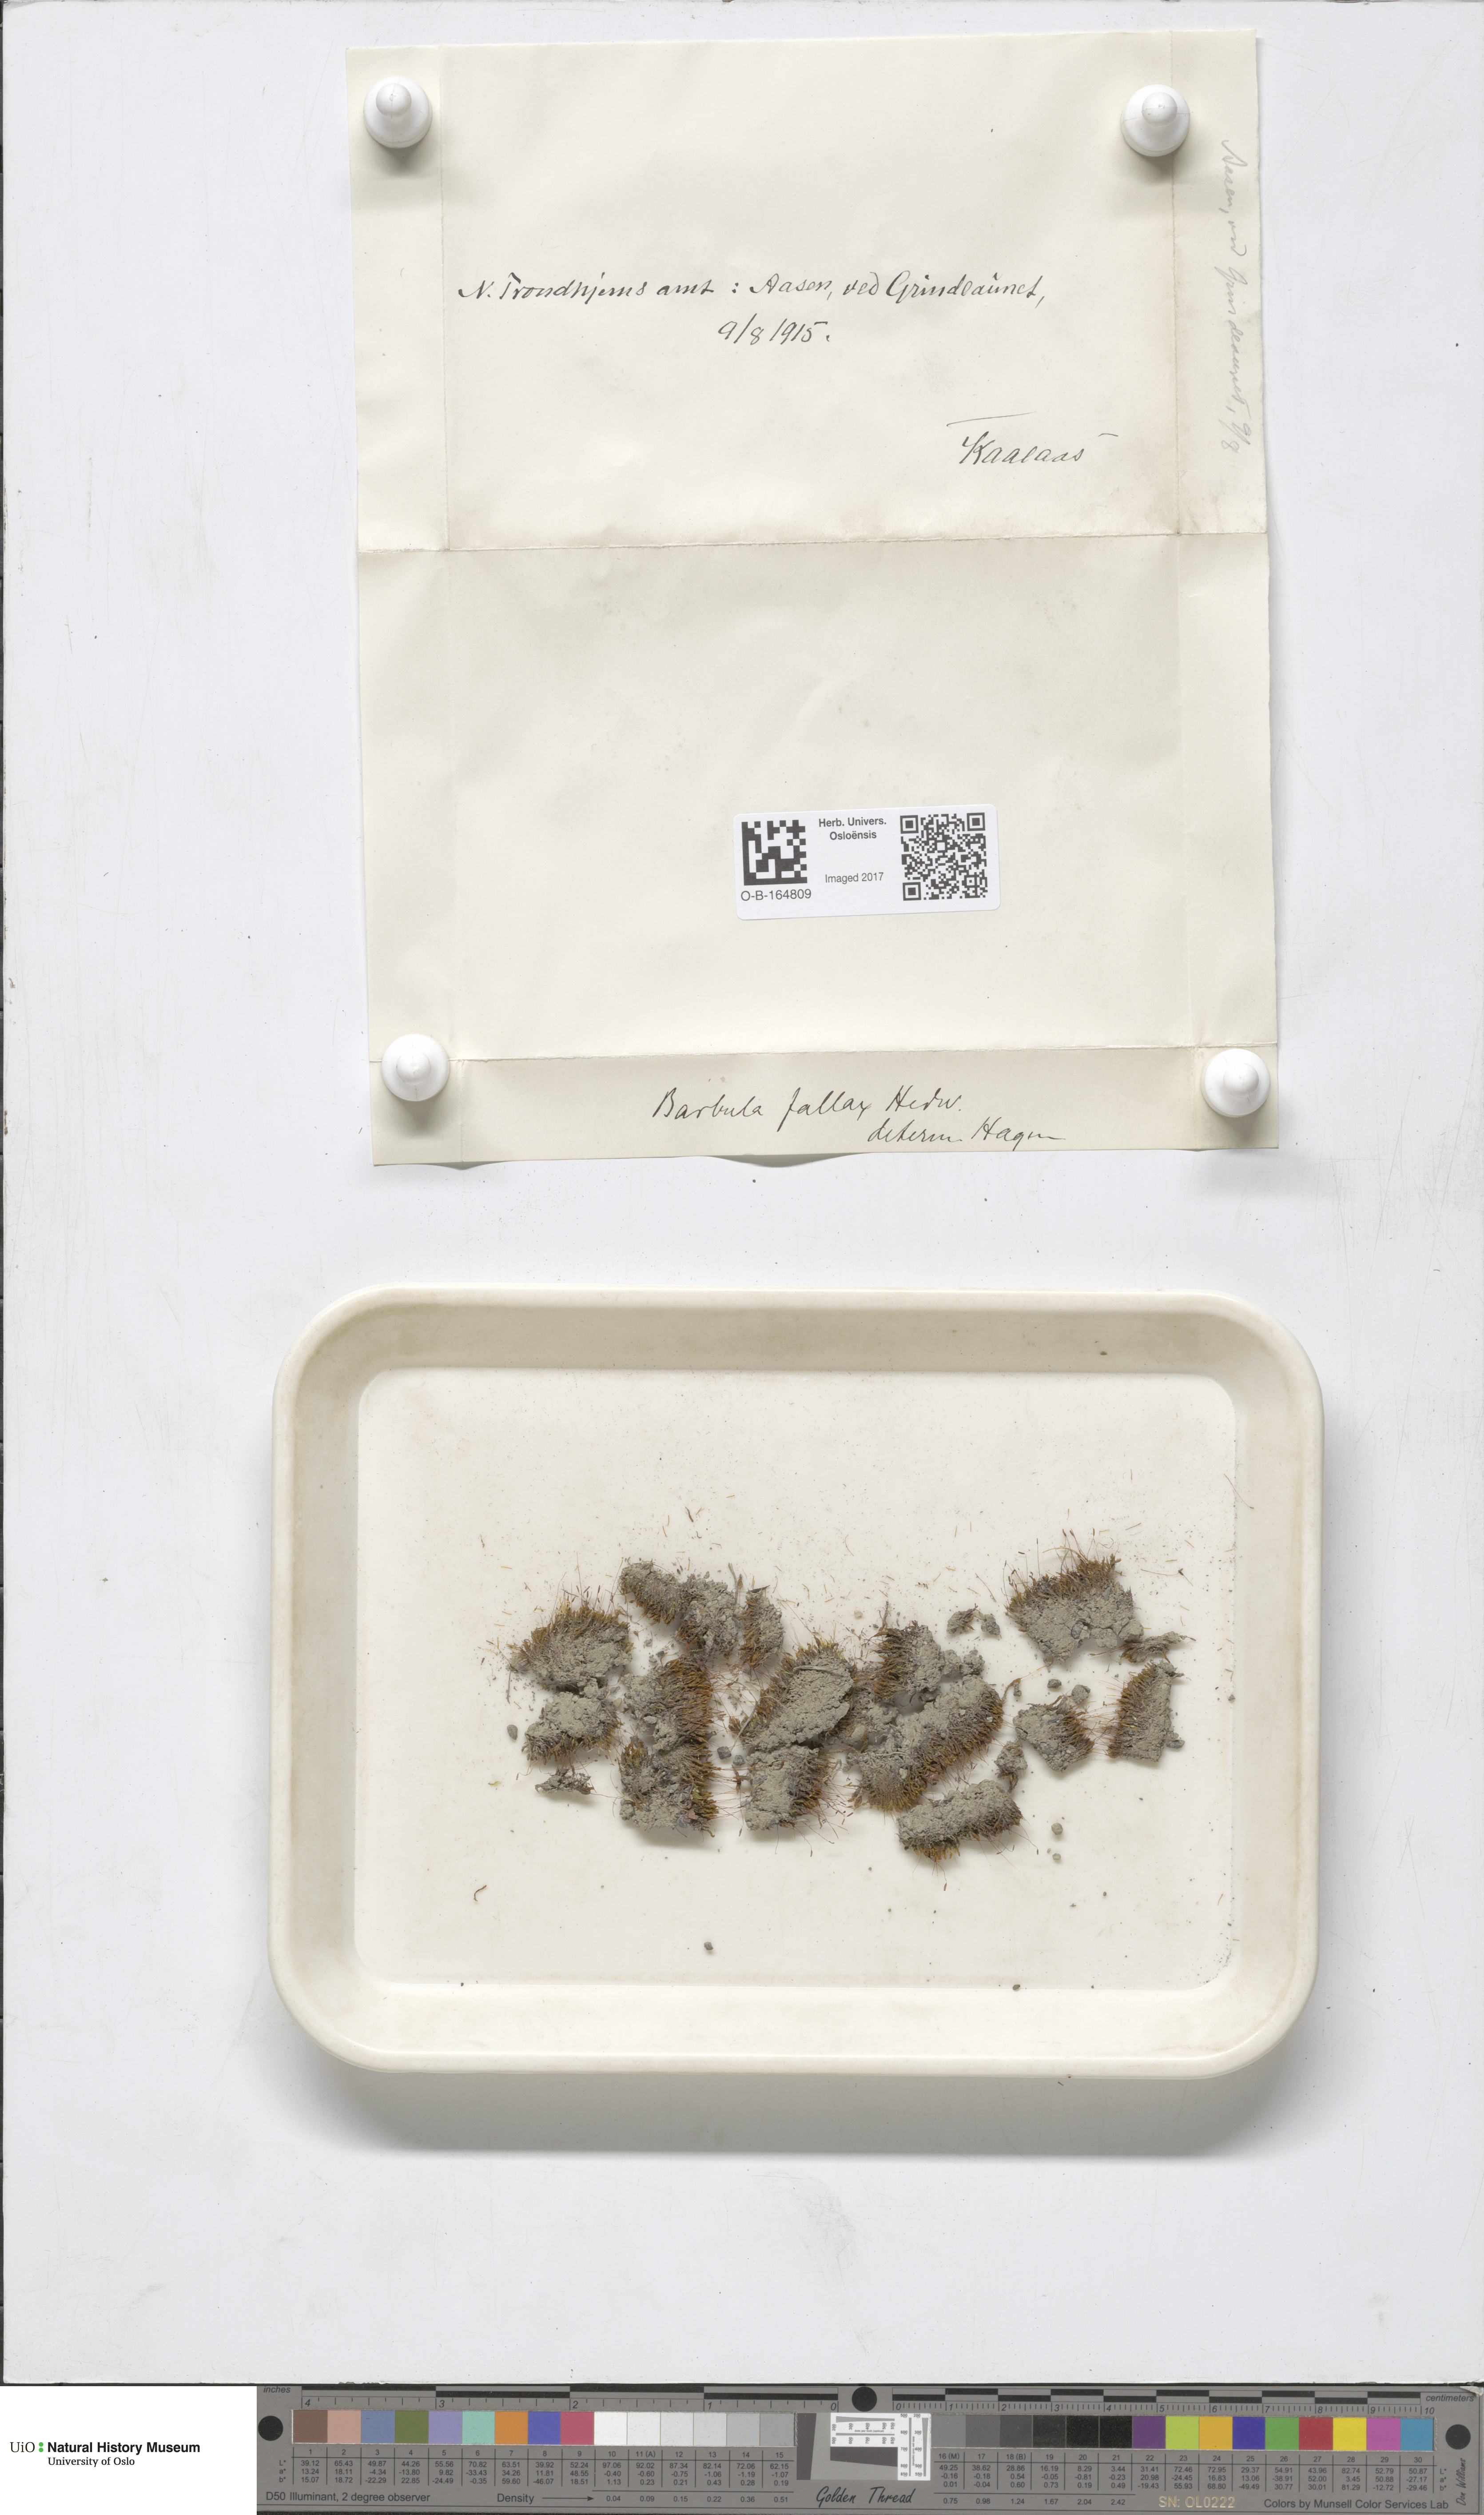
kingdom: Plantae
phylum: Bryophyta
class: Bryopsida
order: Pottiales
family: Pottiaceae
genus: Geheebia
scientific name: Geheebia fallax
